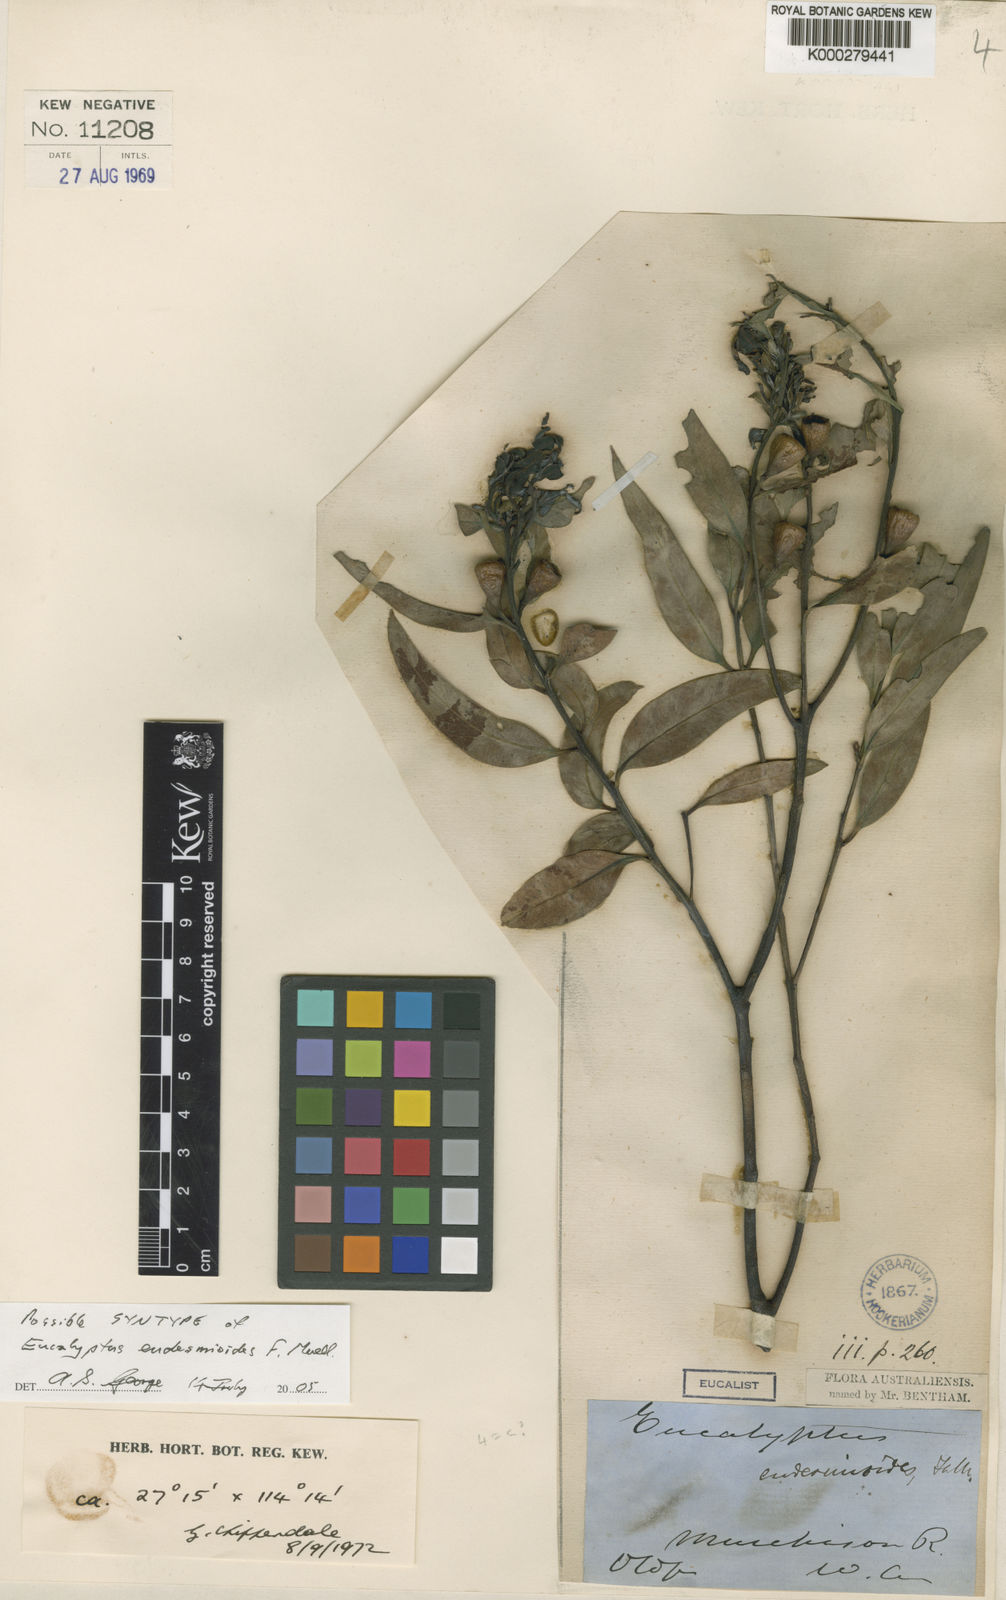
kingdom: Plantae
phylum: Tracheophyta
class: Magnoliopsida
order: Myrtales
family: Myrtaceae
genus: Eucalyptus
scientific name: Eucalyptus eudesmioides
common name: Desert gum
